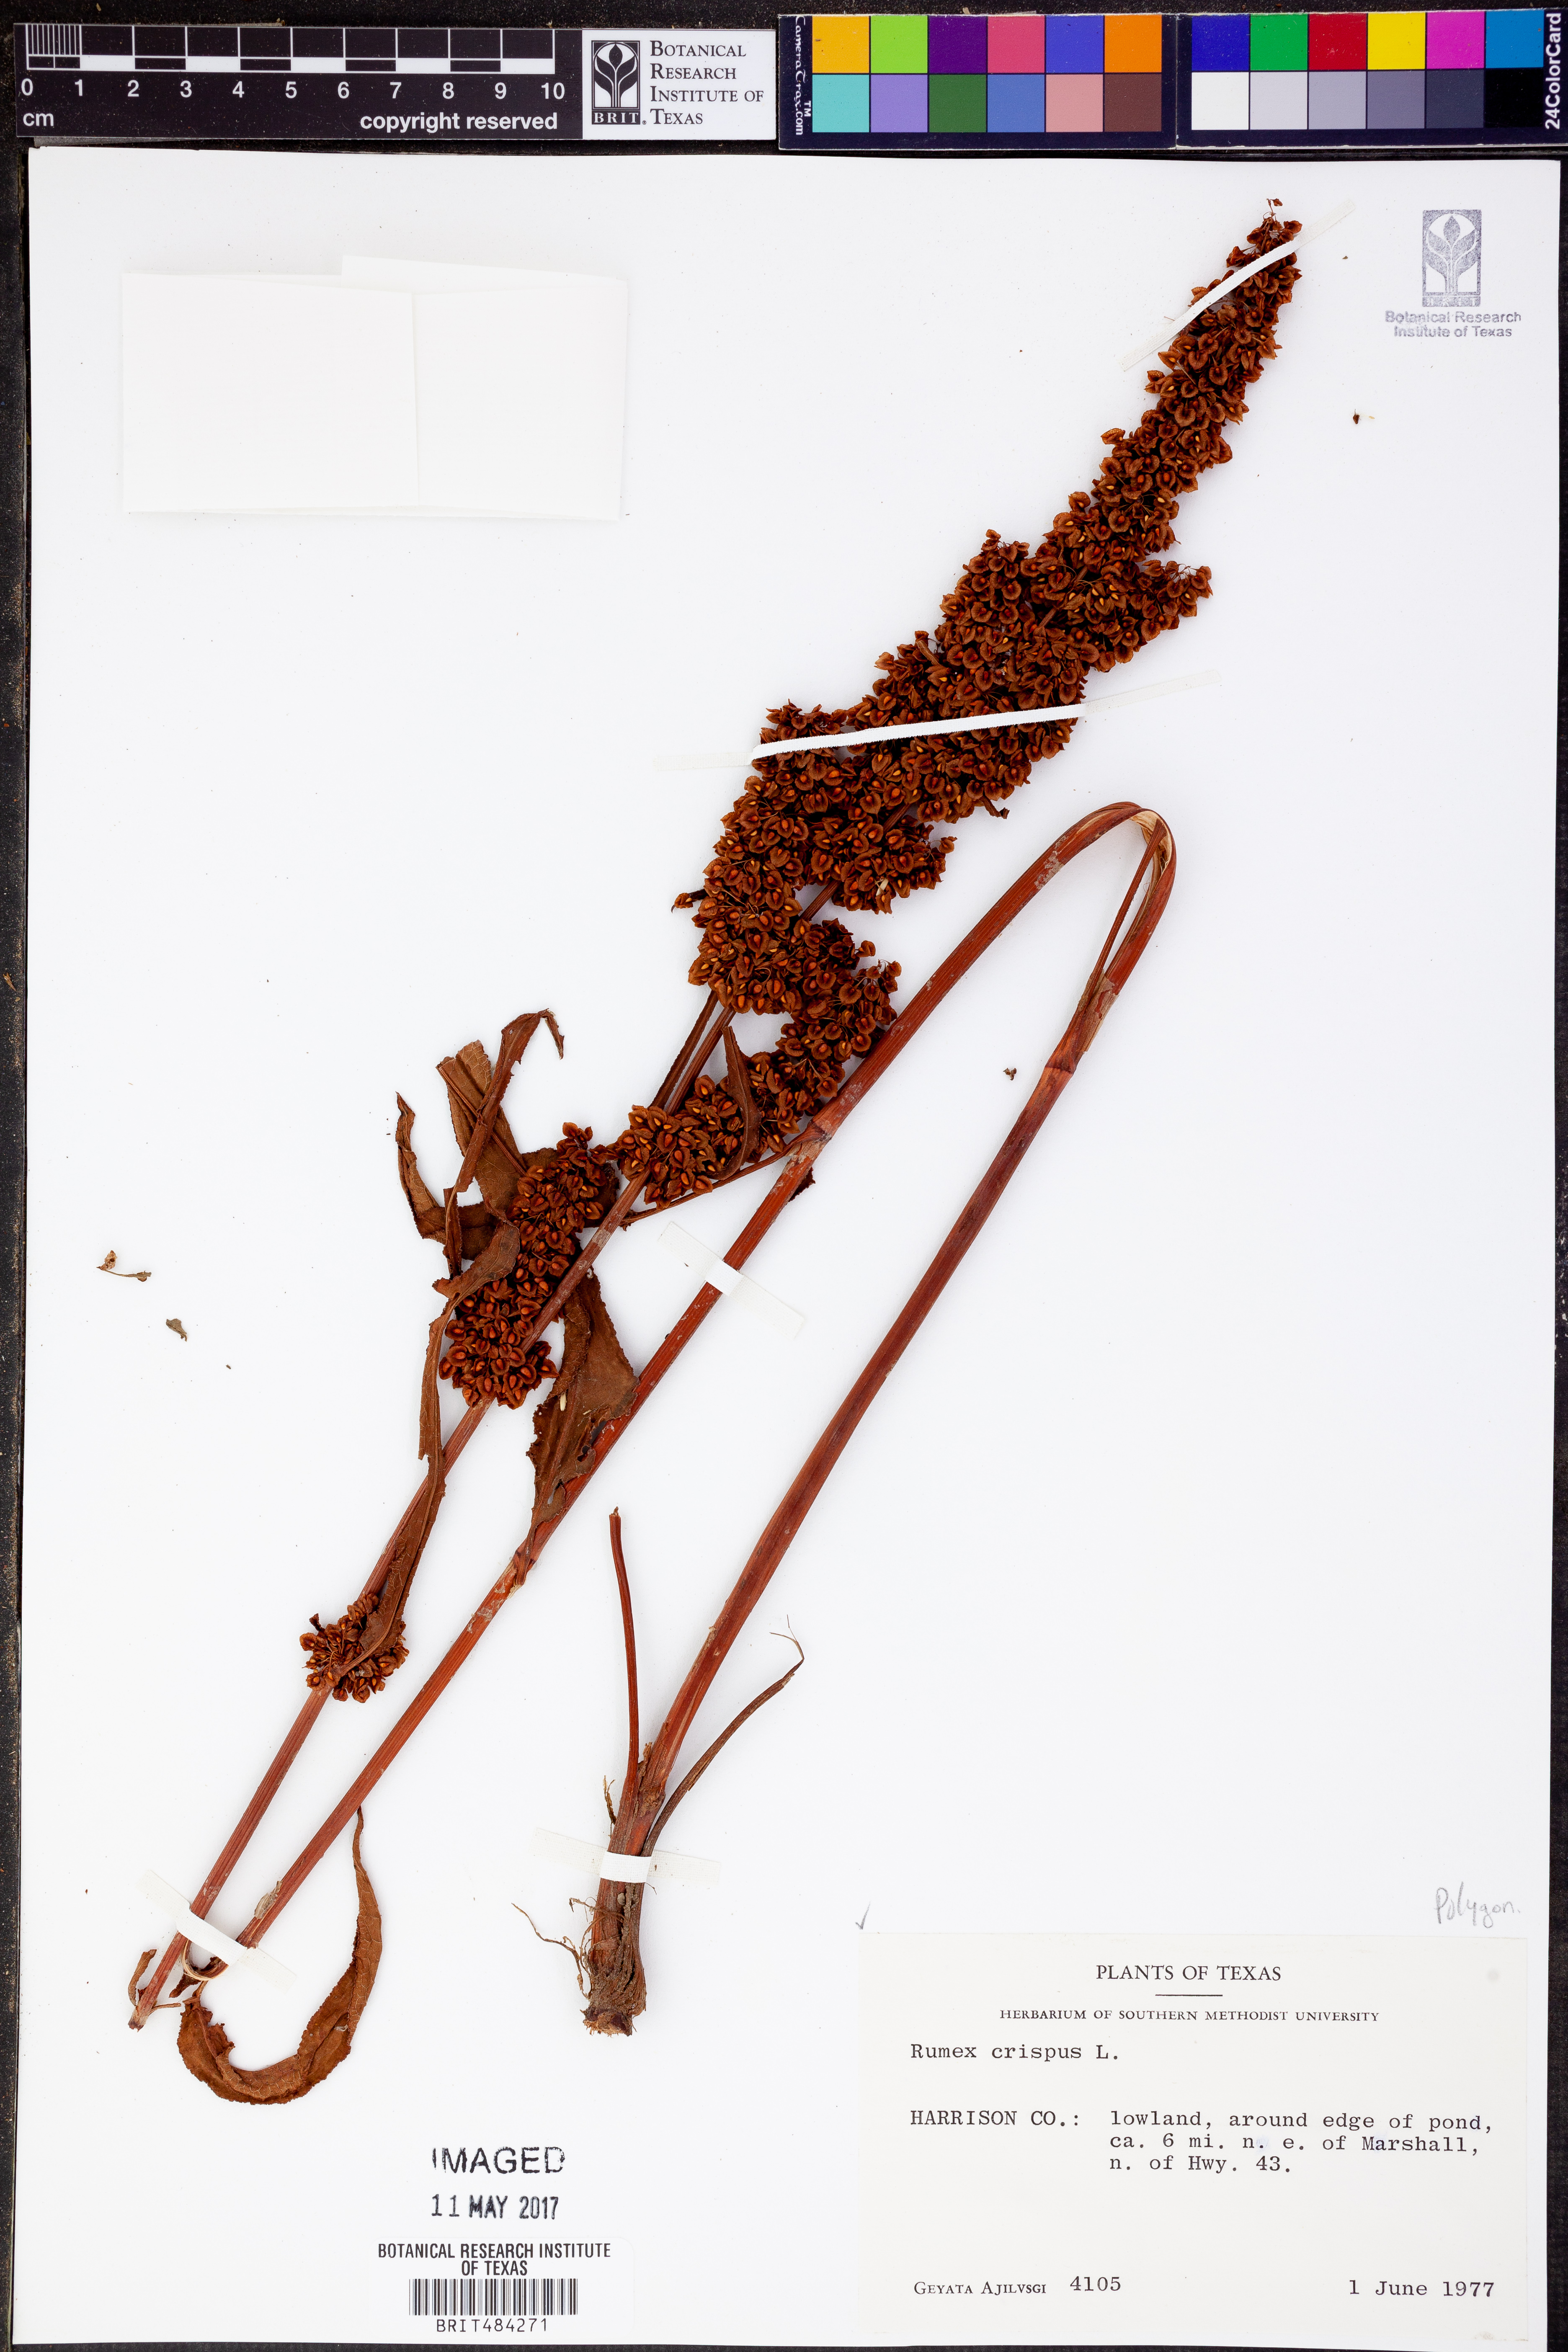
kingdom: Plantae
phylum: Tracheophyta
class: Magnoliopsida
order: Caryophyllales
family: Polygonaceae
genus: Rumex
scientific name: Rumex crispus
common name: Curled dock
